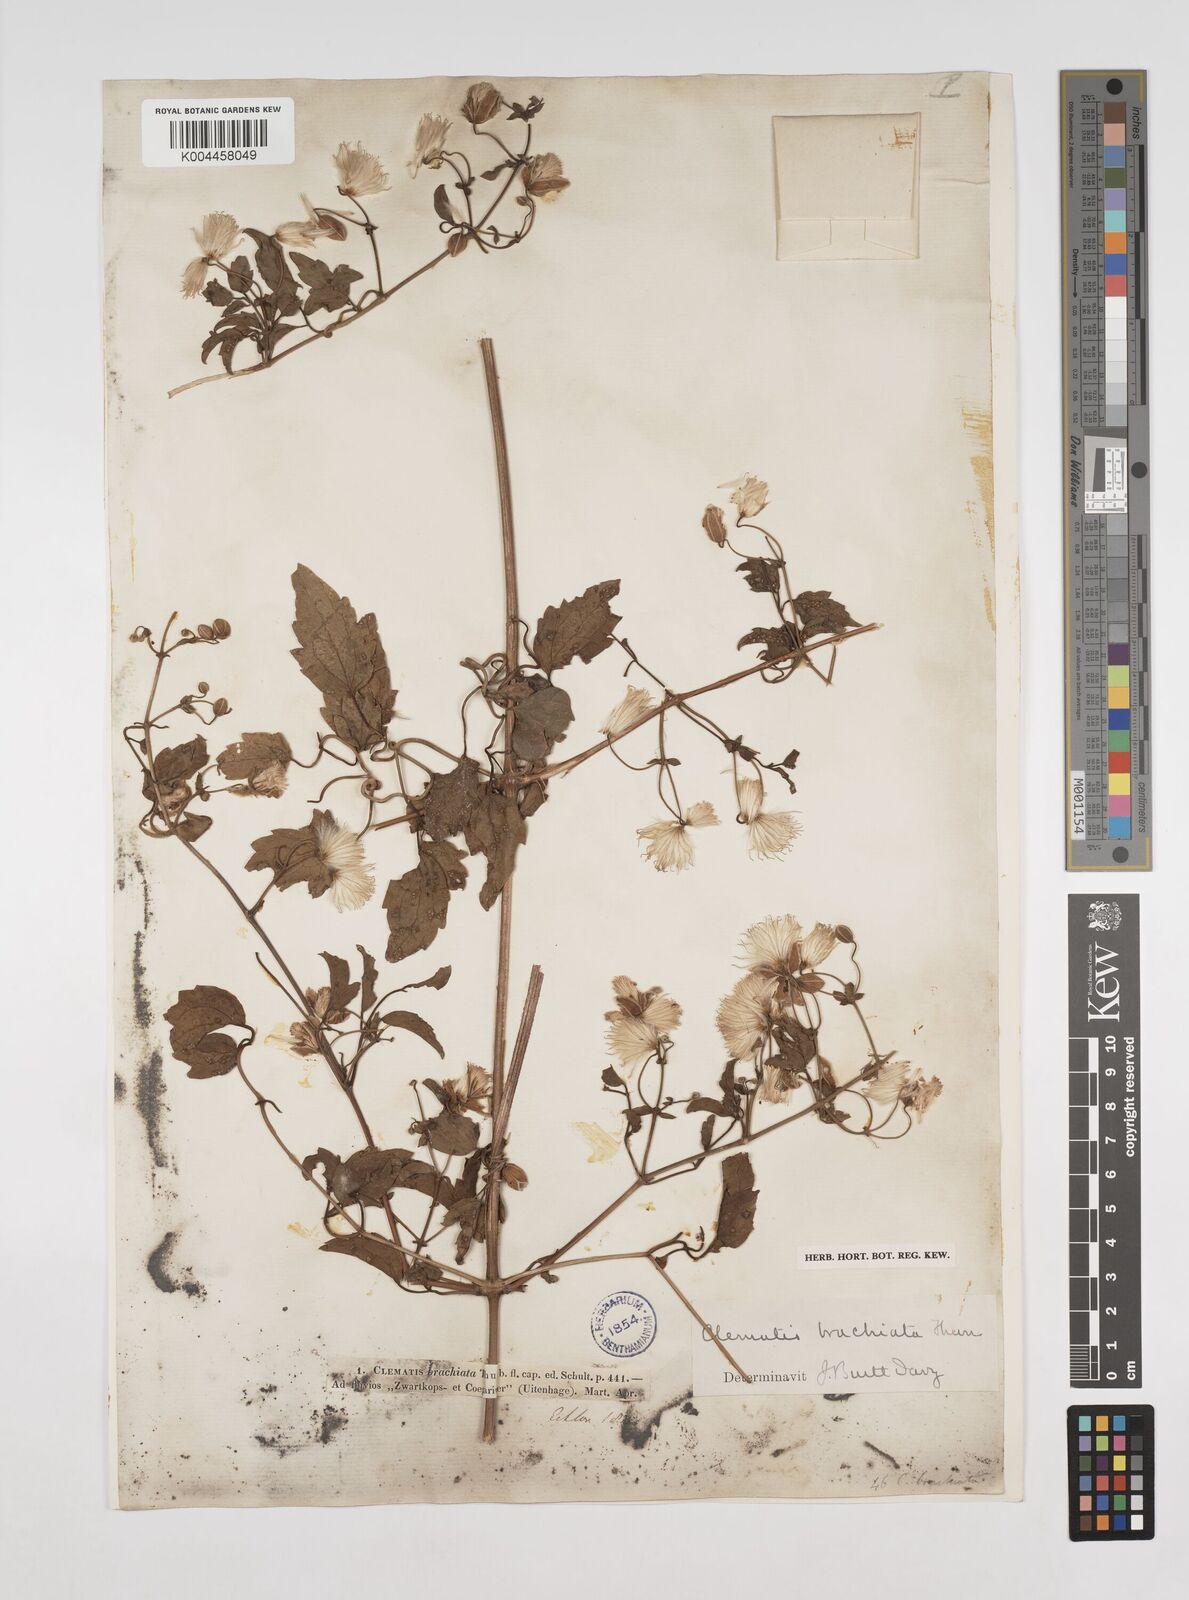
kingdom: Plantae
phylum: Tracheophyta
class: Magnoliopsida
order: Ranunculales
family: Ranunculaceae
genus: Clematis
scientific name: Clematis brachiata
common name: Traveler's-joy
